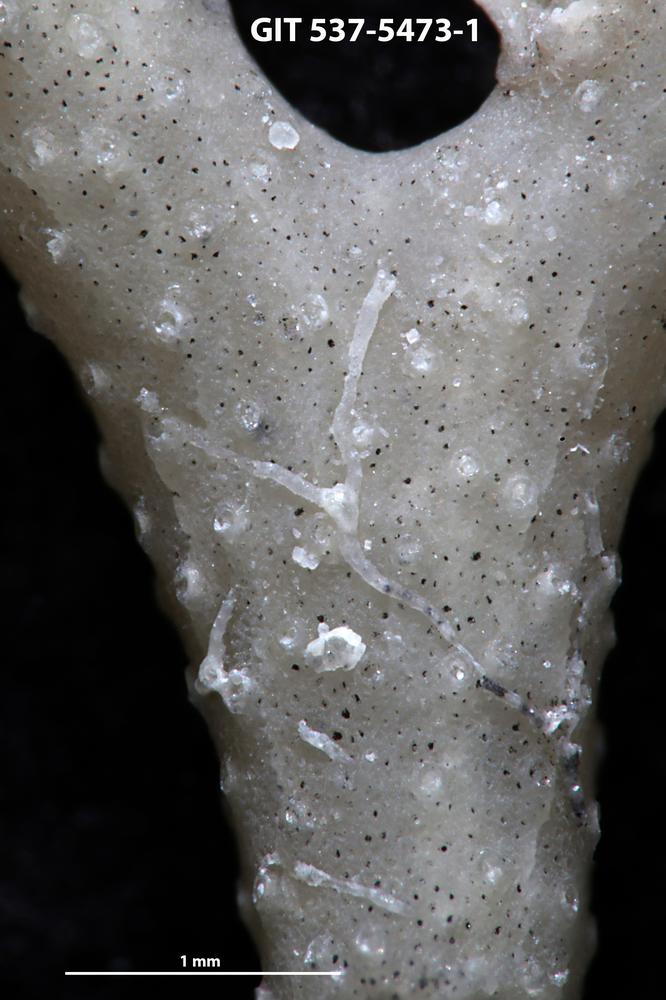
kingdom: Animalia
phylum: Bryozoa
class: Stenolaemata
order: Cyclostomatida
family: Corynotrypidae
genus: Corynotrypa
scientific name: Corynotrypa
